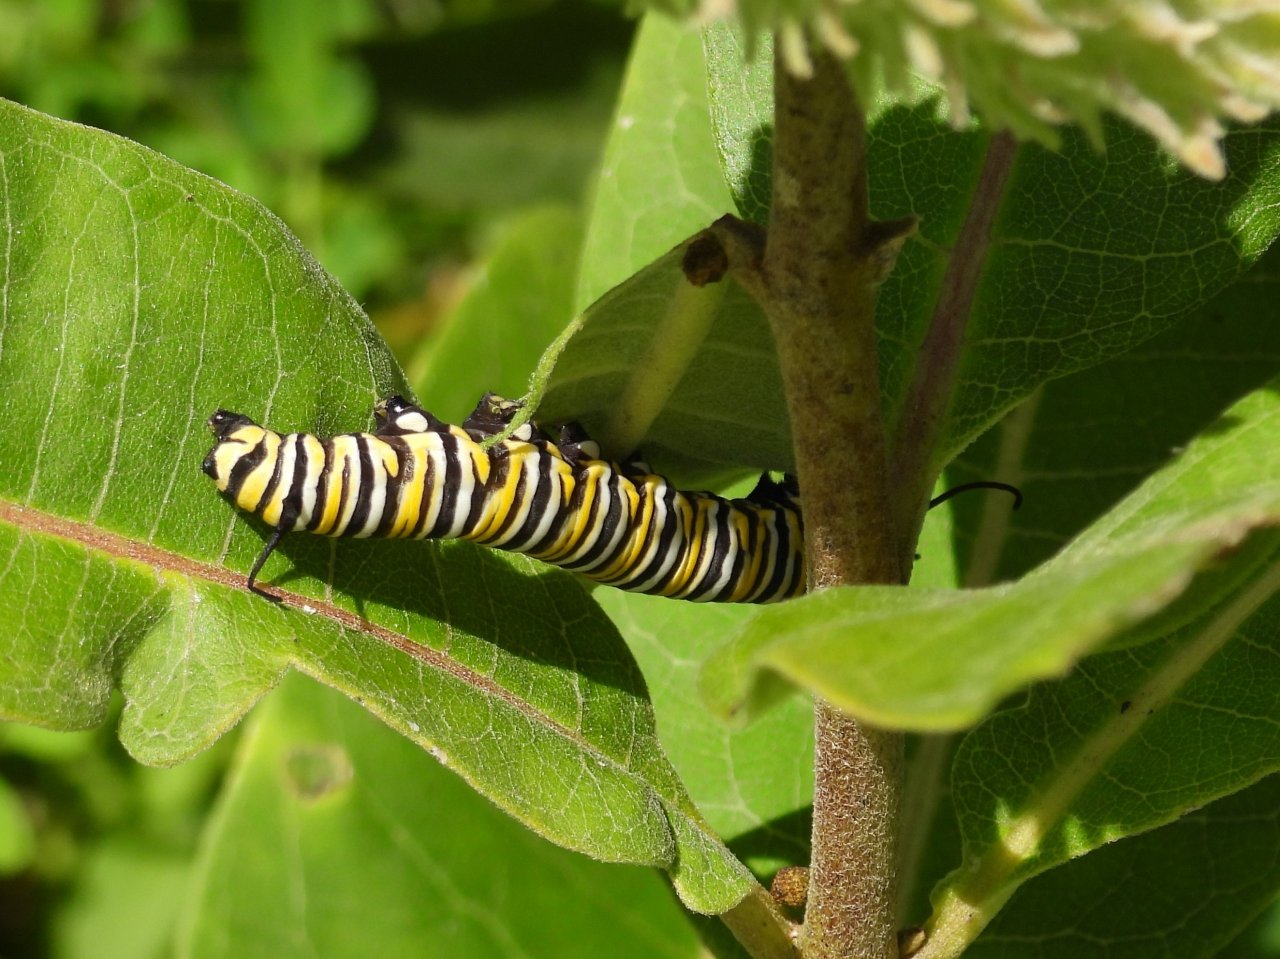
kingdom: Animalia
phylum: Arthropoda
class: Insecta
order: Lepidoptera
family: Nymphalidae
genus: Danaus
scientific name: Danaus plexippus
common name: Monarch
